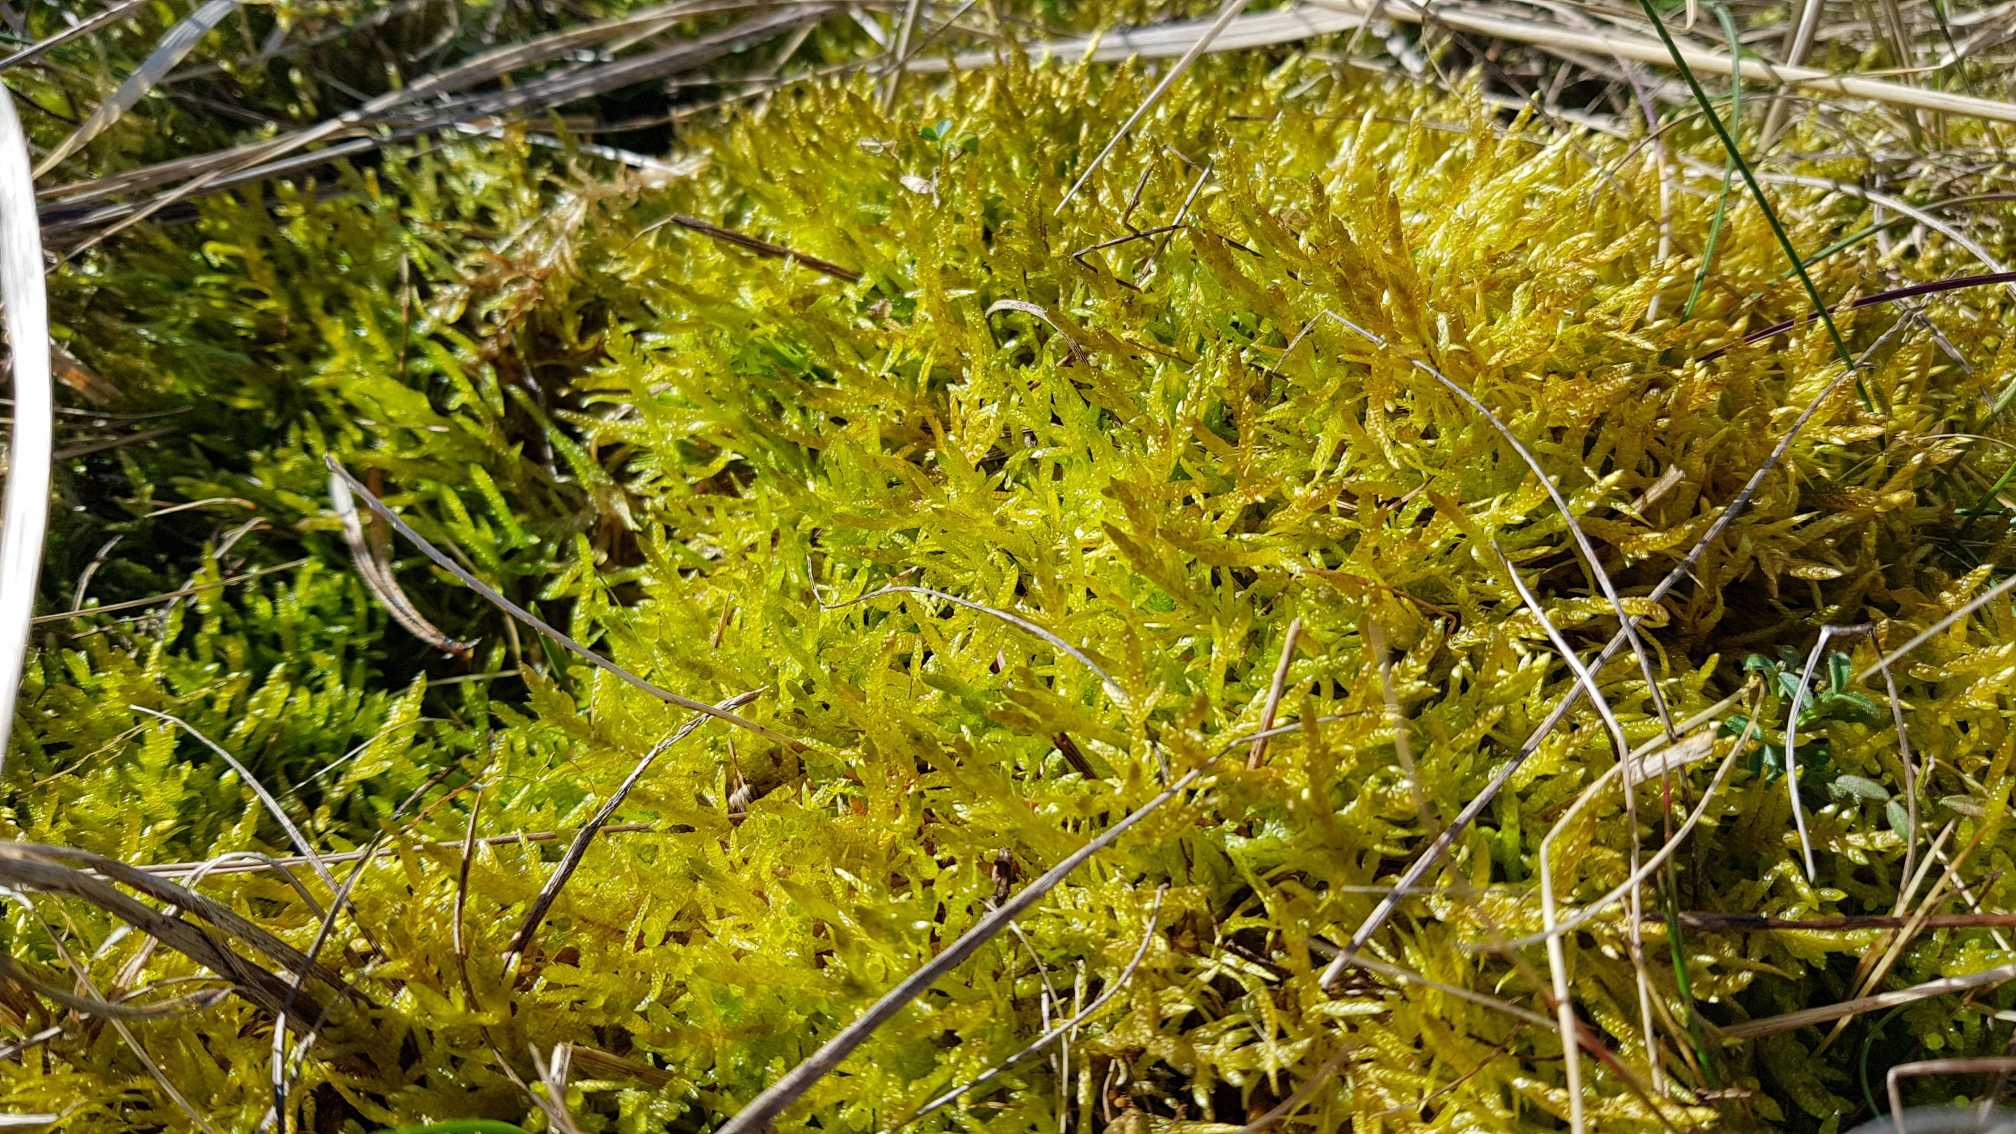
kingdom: Plantae
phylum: Bryophyta
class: Bryopsida
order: Hypnales
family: Brachytheciaceae
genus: Pseudoscleropodium
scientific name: Pseudoscleropodium purum
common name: Hulbladet fedtmos
